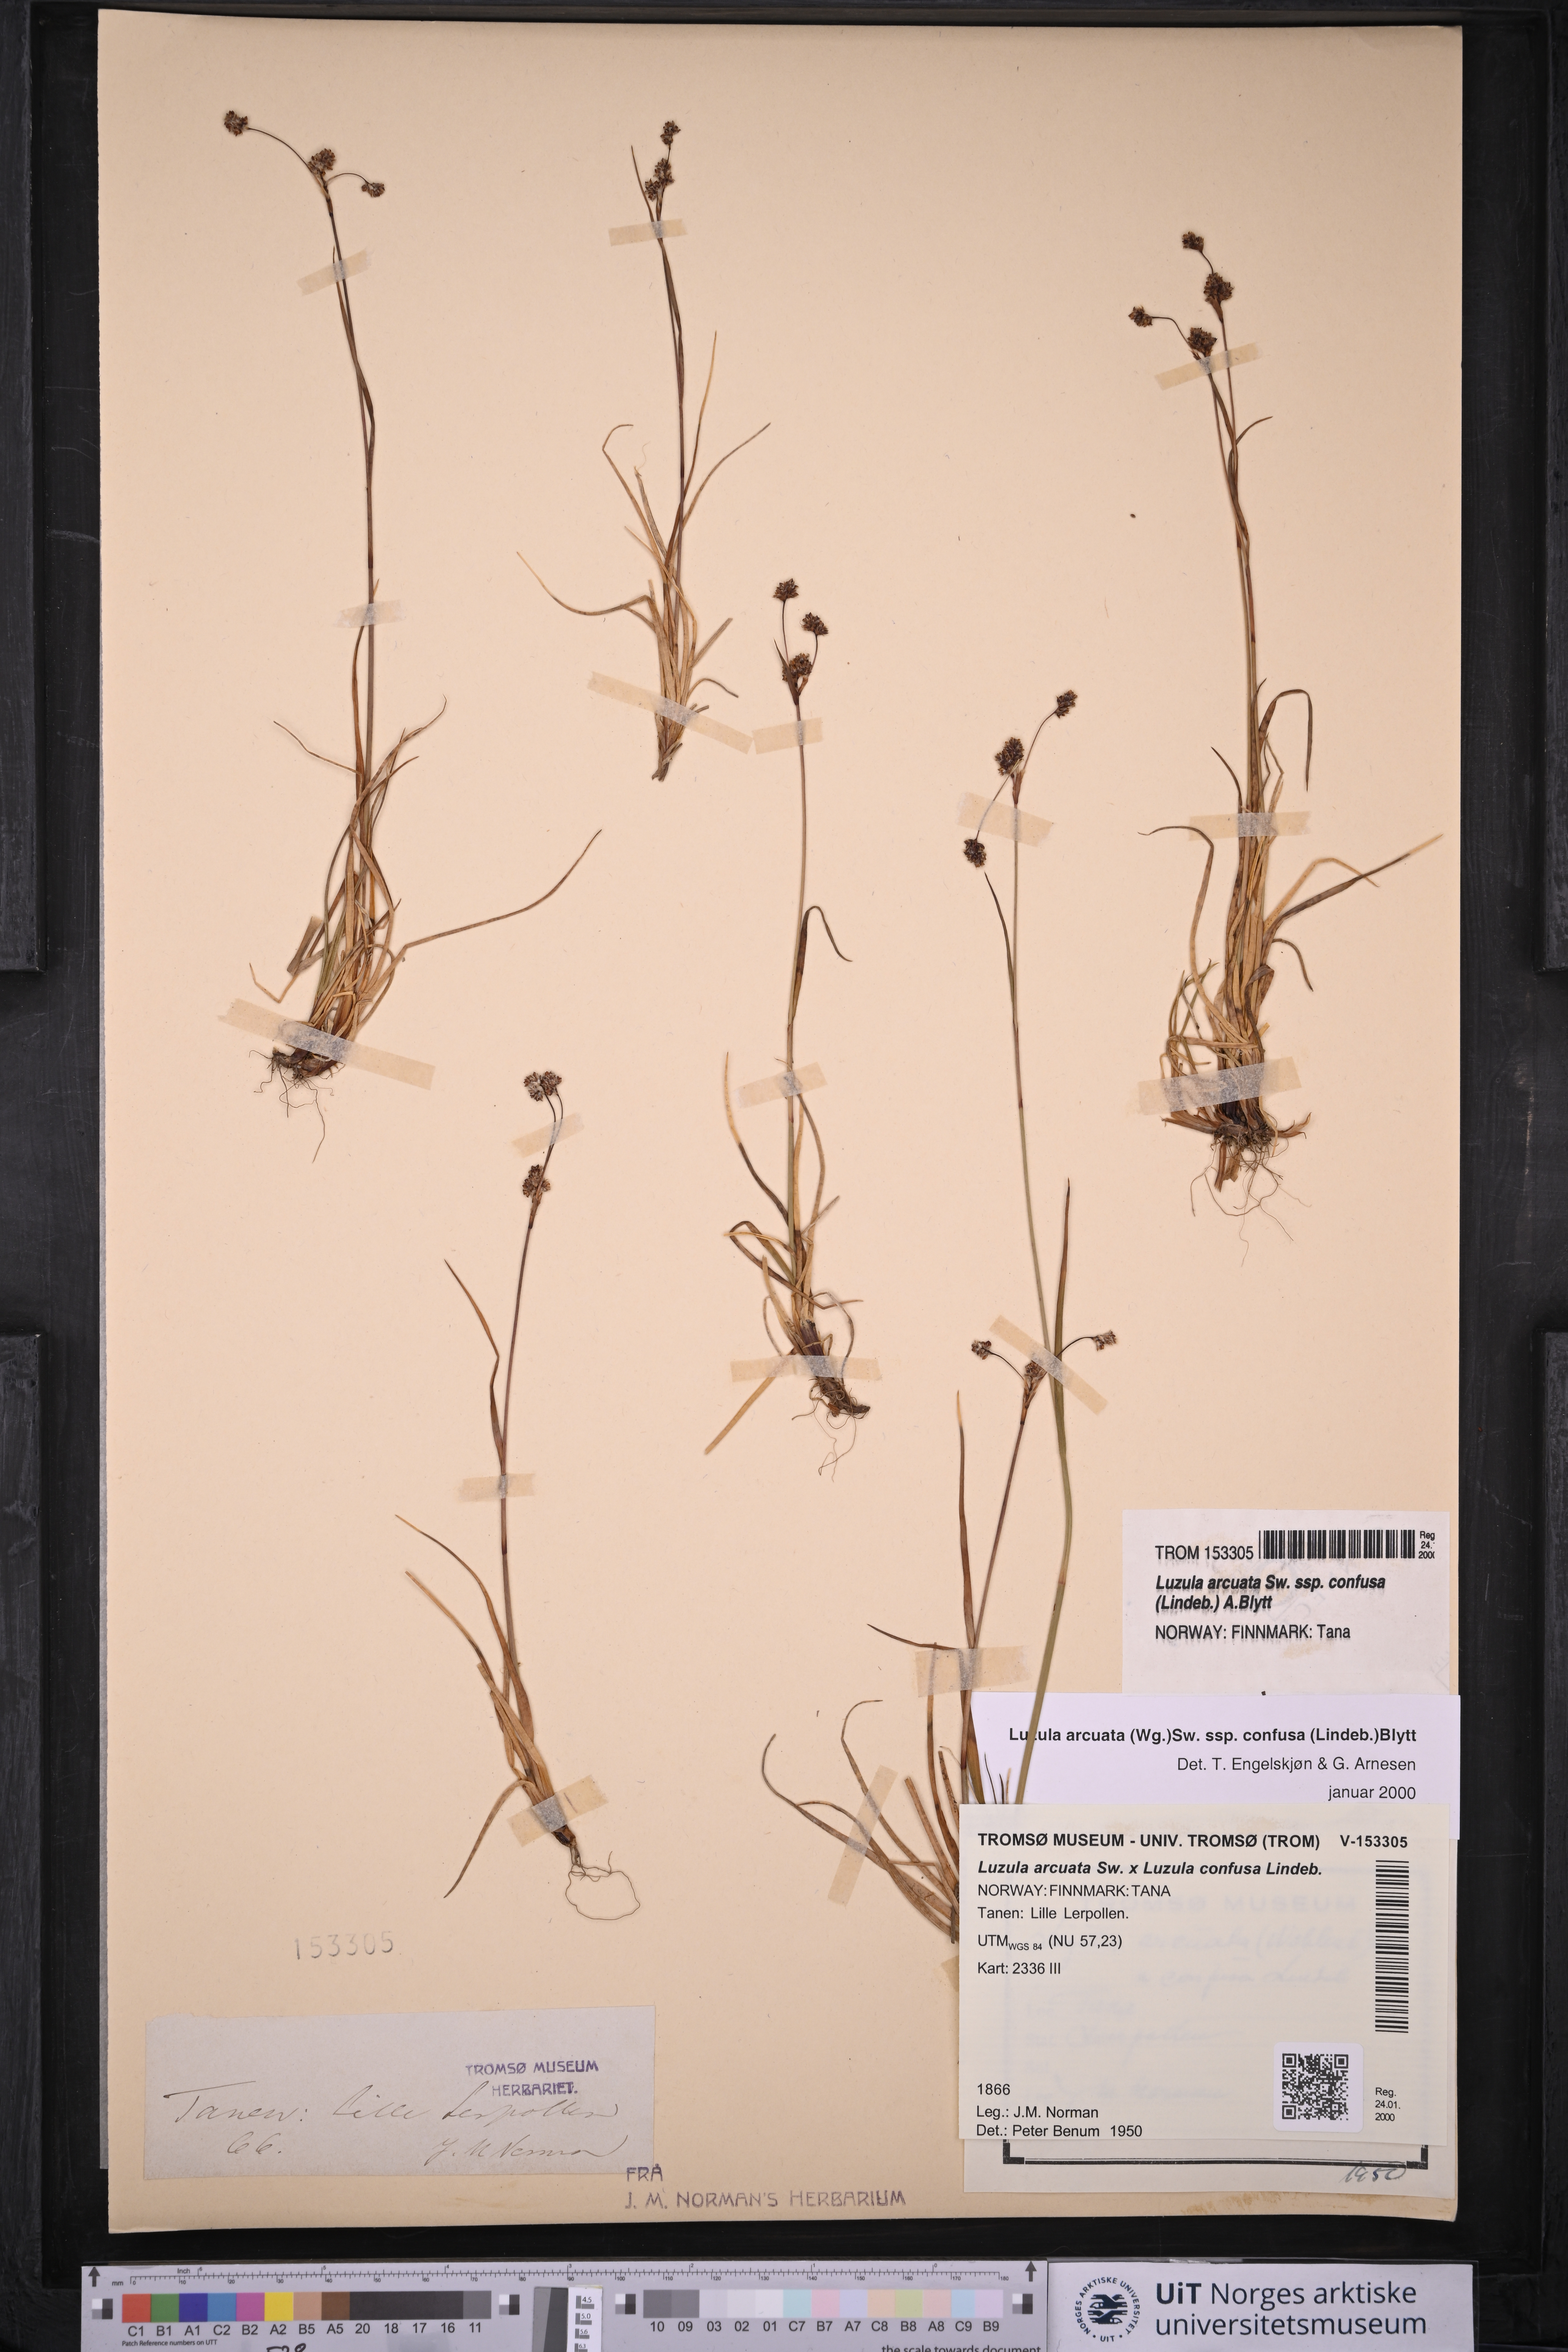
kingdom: Plantae
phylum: Tracheophyta
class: Liliopsida
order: Poales
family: Juncaceae
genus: Luzula
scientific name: Luzula confusa
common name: Northern wood rush
